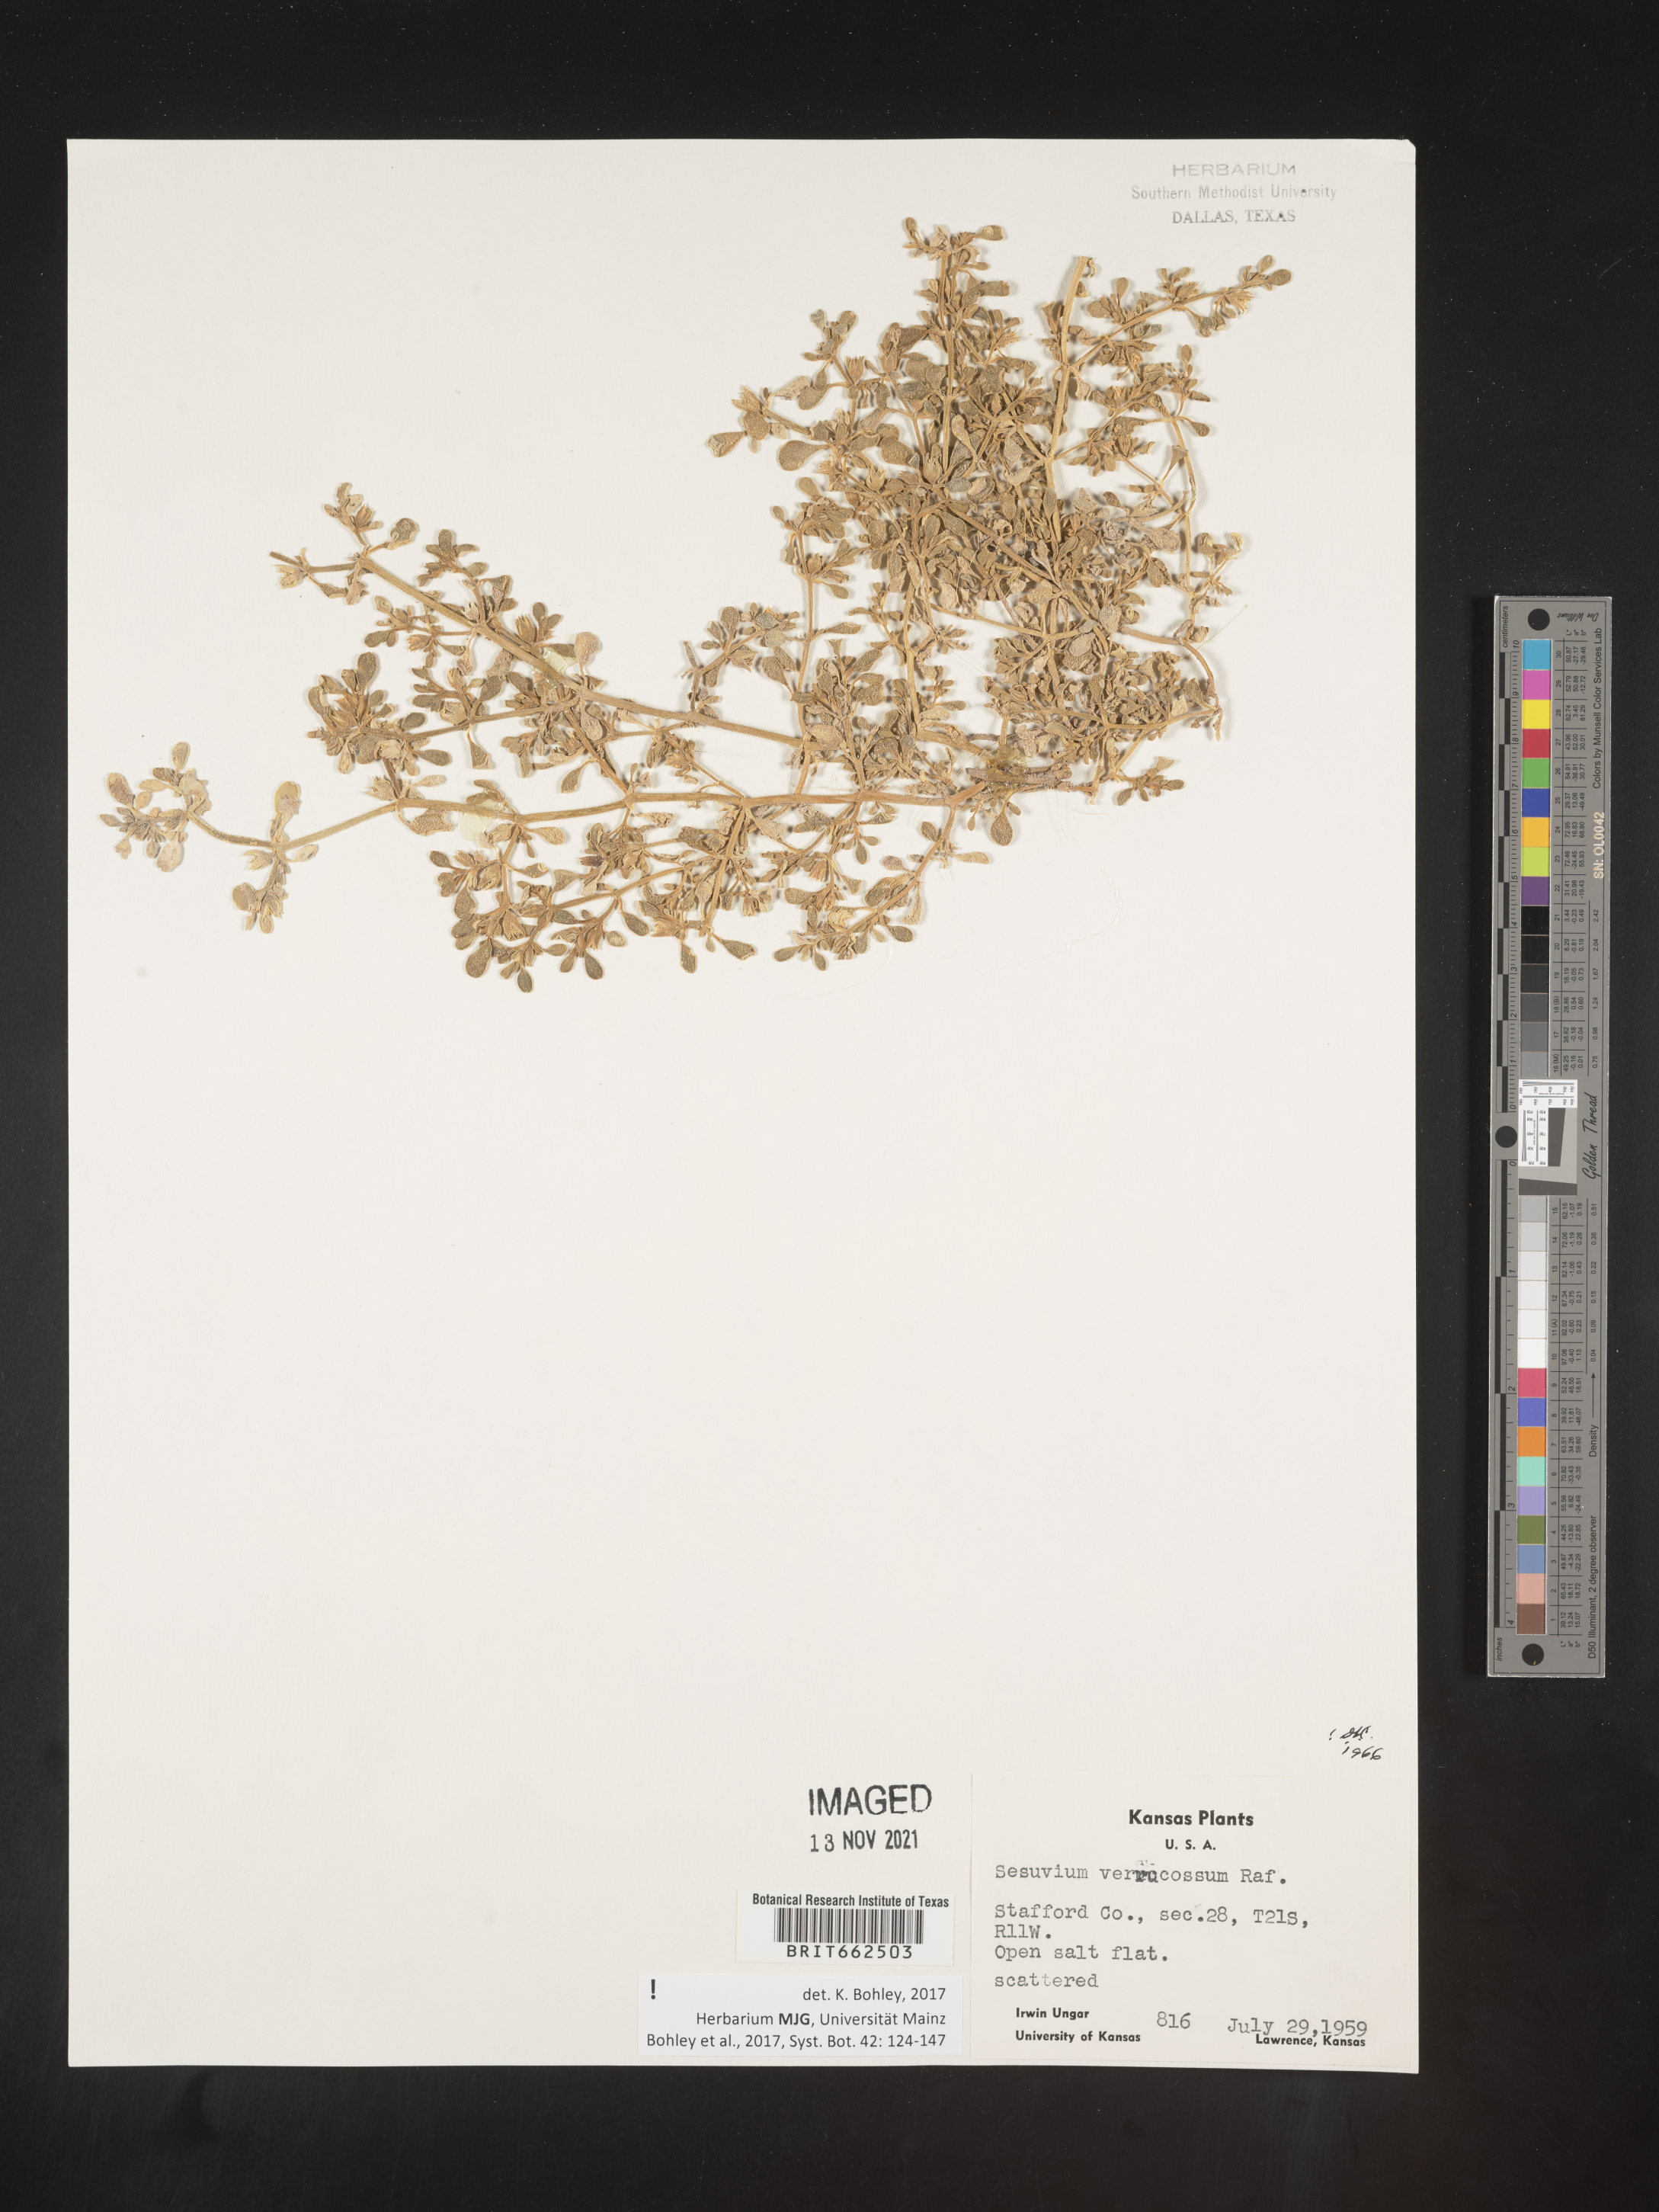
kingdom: Plantae
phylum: Tracheophyta
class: Magnoliopsida
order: Caryophyllales
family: Aizoaceae
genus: Sesuvium
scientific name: Sesuvium
